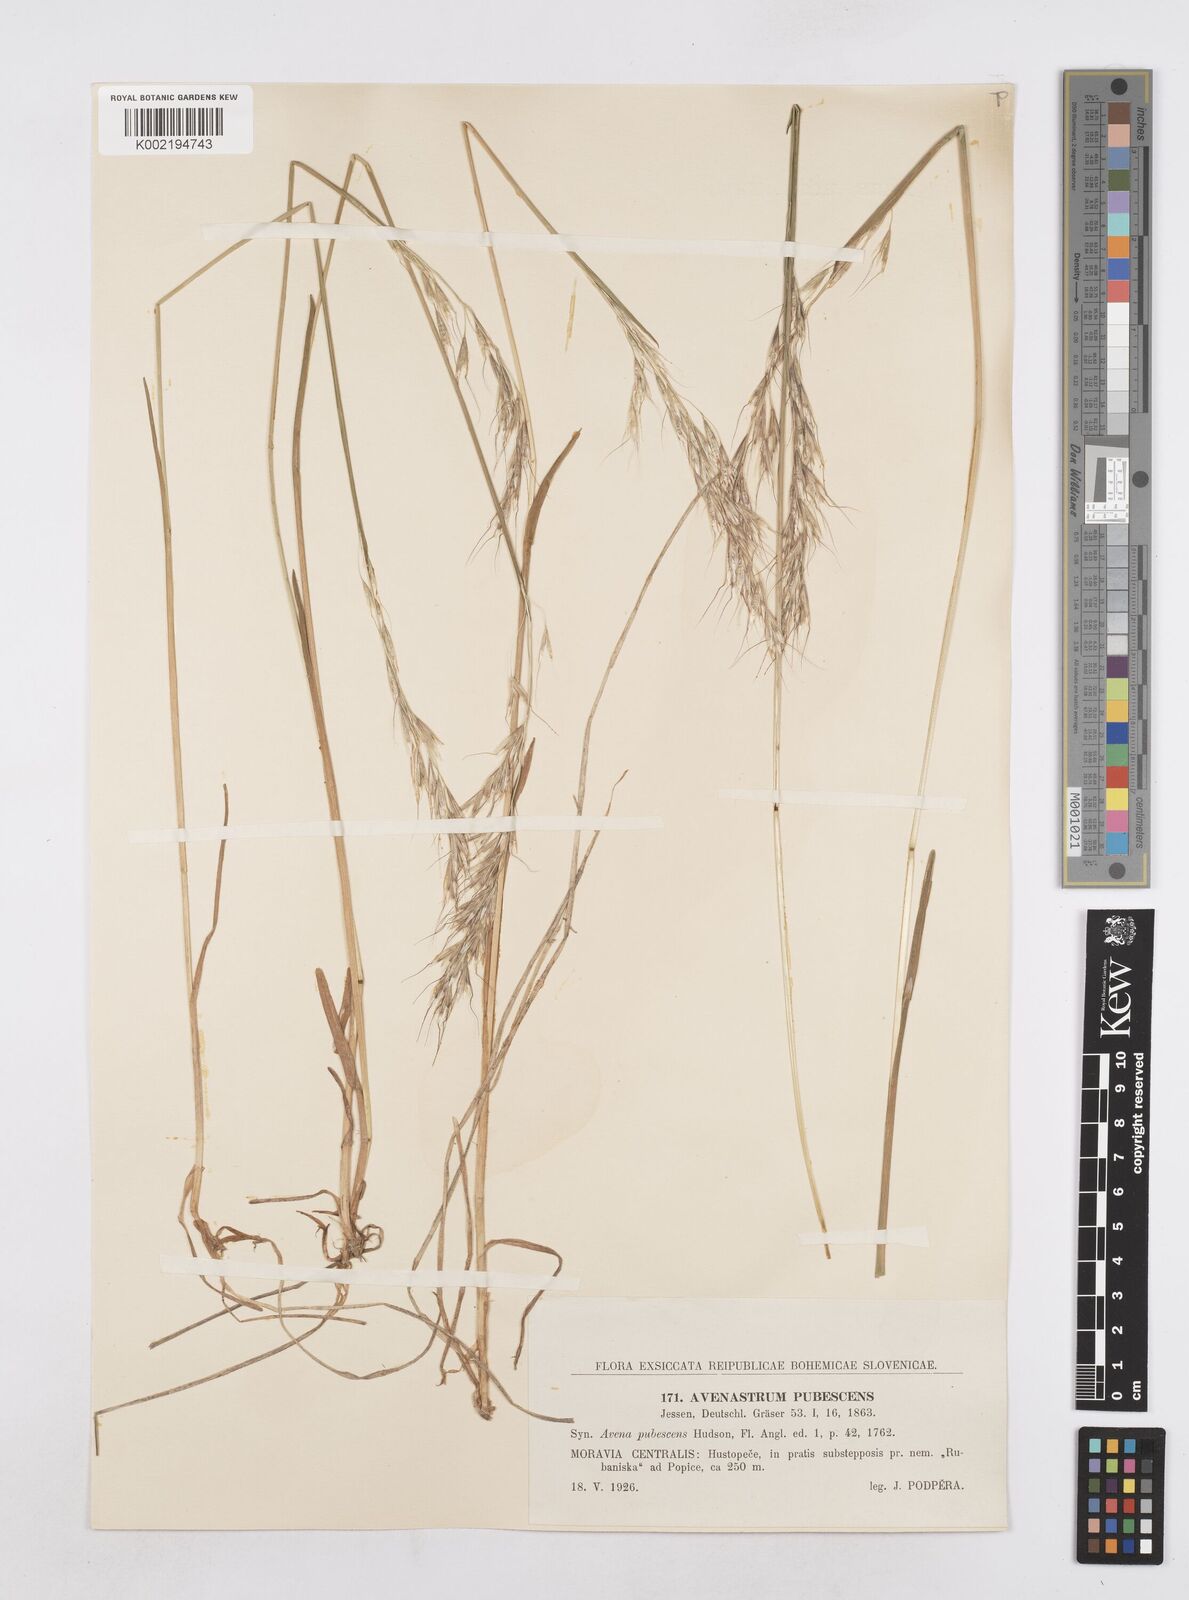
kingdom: Plantae
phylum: Tracheophyta
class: Liliopsida
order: Poales
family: Poaceae
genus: Avenula
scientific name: Avenula pubescens
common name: Downy alpine oatgrass
